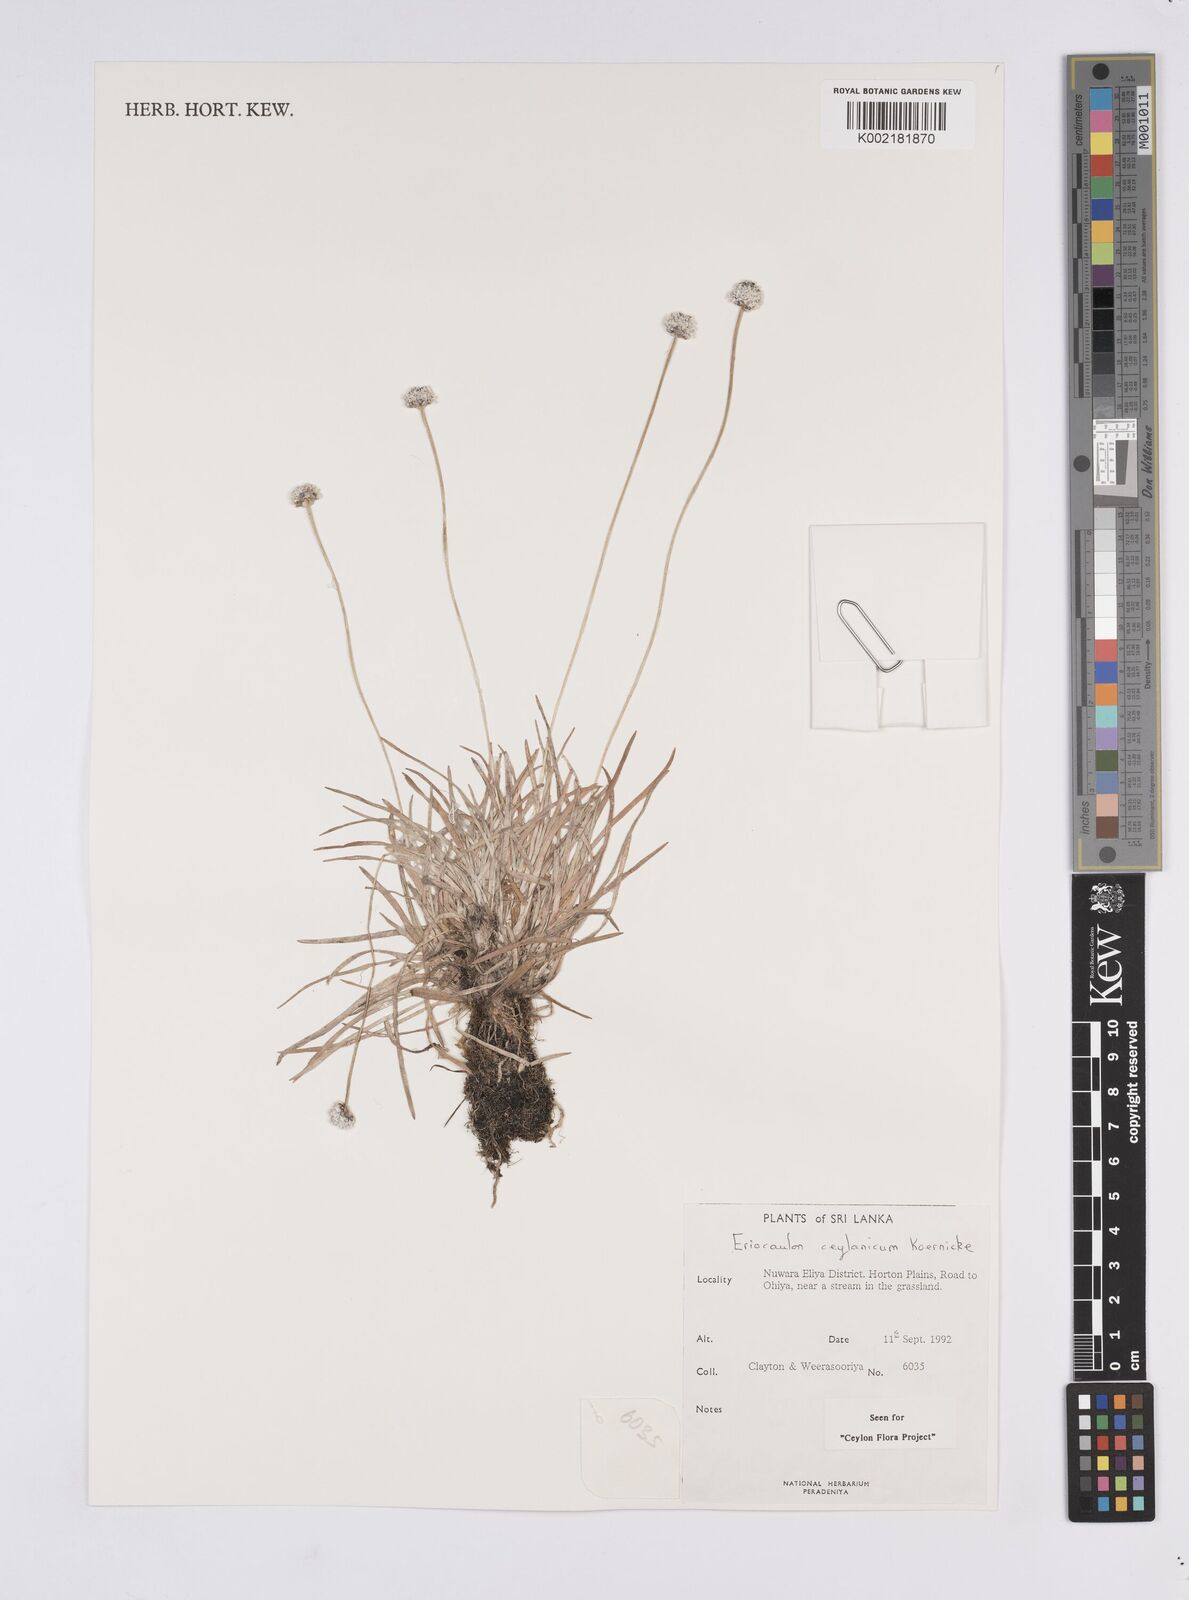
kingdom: Plantae
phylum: Tracheophyta
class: Liliopsida
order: Poales
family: Eriocaulaceae
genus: Eriocaulon
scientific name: Eriocaulon ceylanicum
